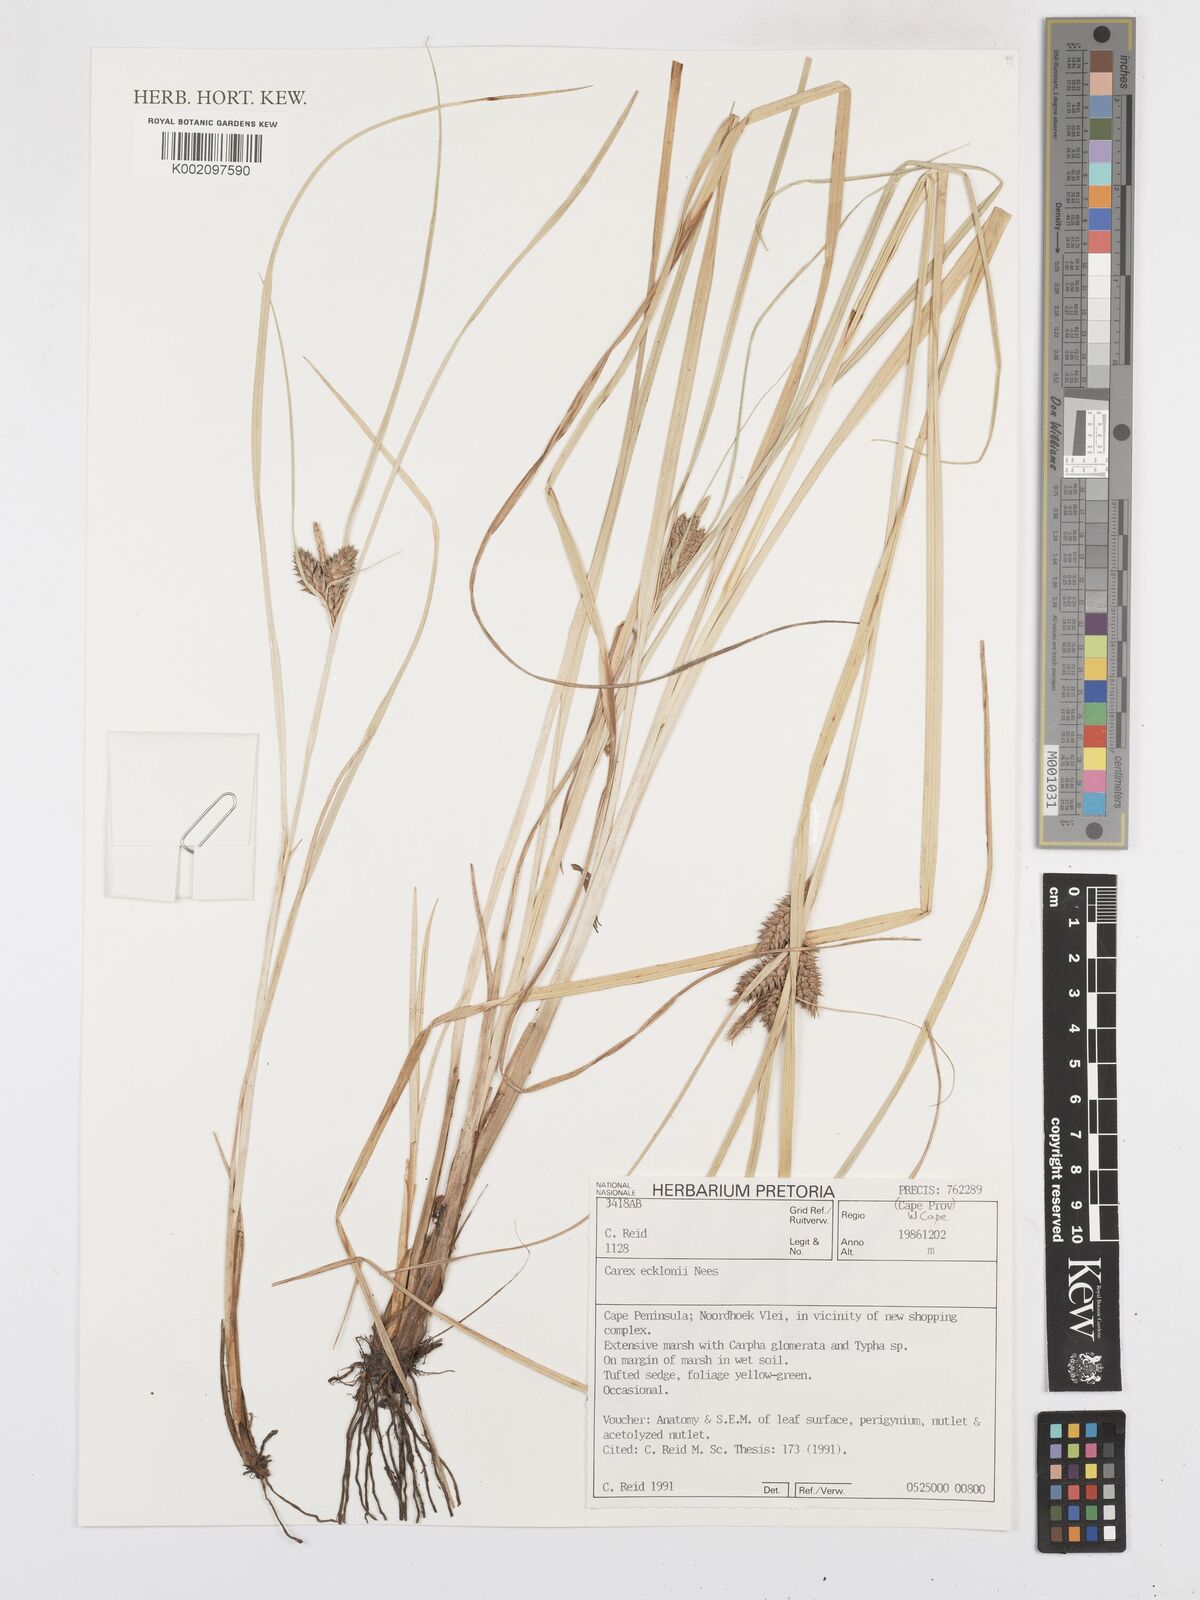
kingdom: Plantae
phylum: Tracheophyta
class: Liliopsida
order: Poales
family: Cyperaceae
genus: Carex
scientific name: Carex extensa
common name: Long-bracted sedge
